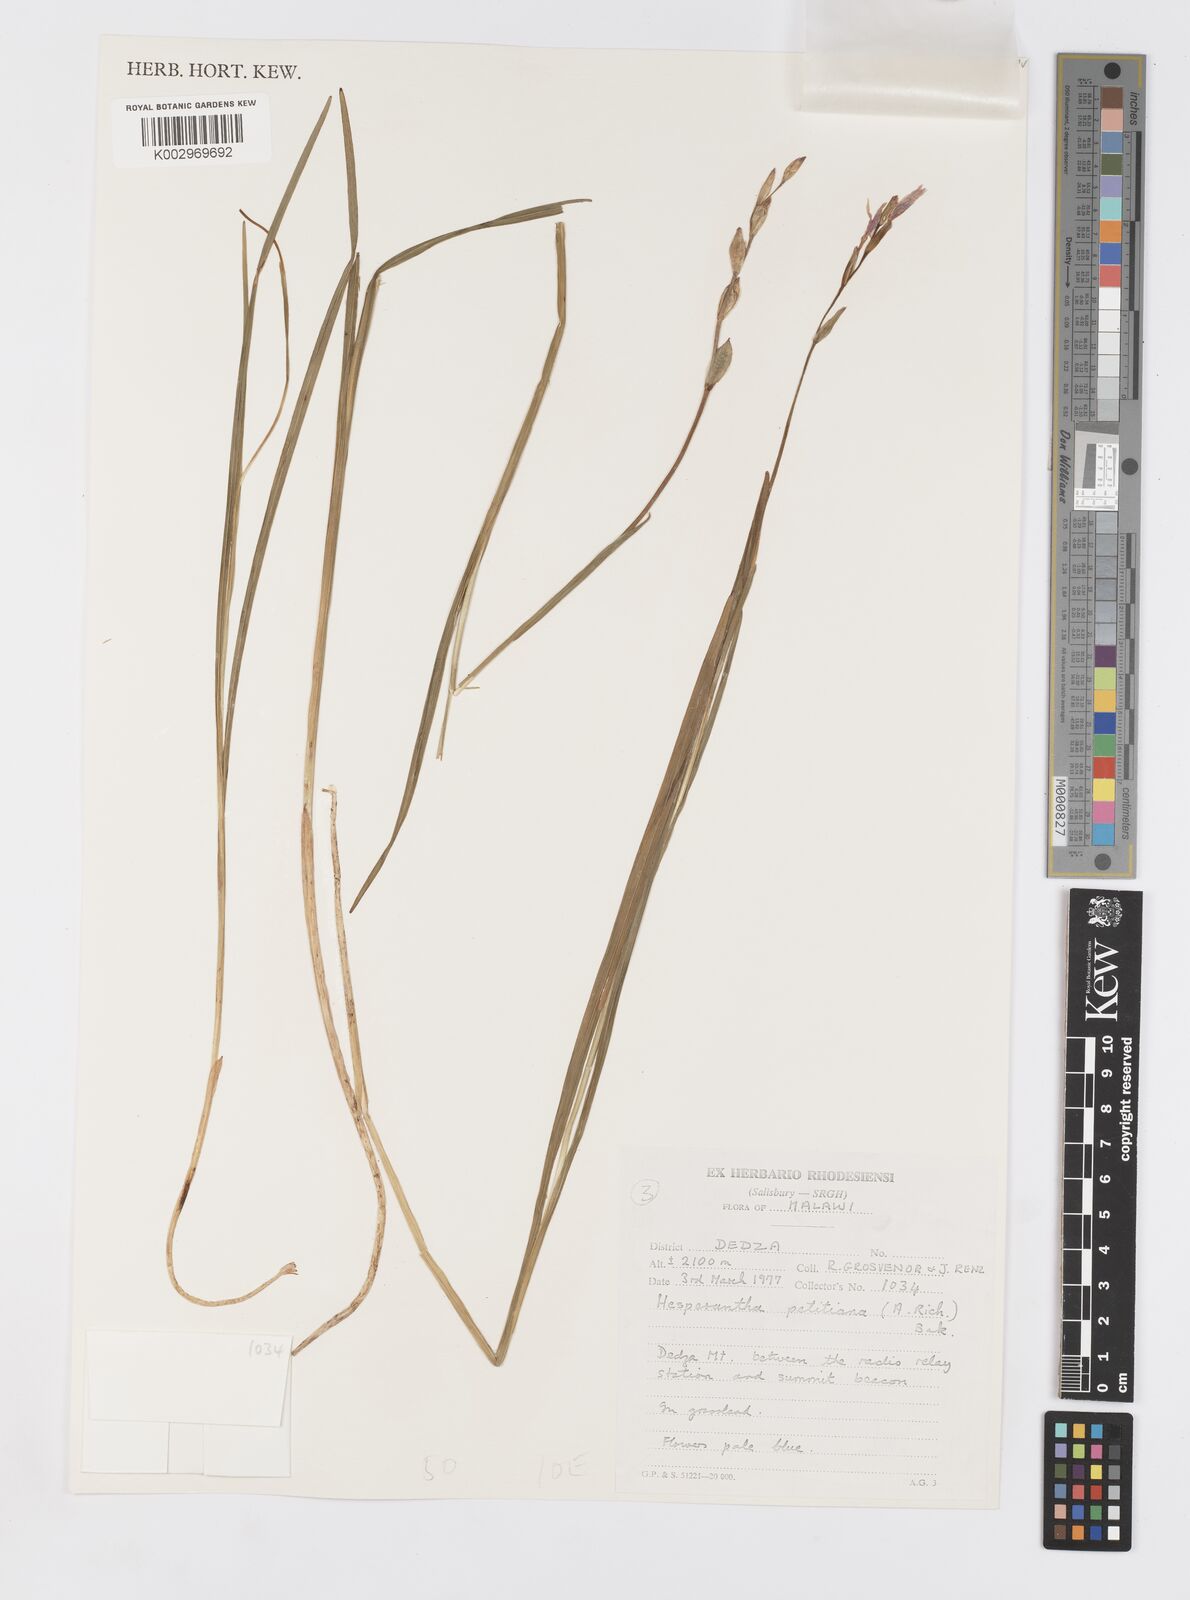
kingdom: Plantae
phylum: Tracheophyta
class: Liliopsida
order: Asparagales
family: Iridaceae
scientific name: Iridaceae
